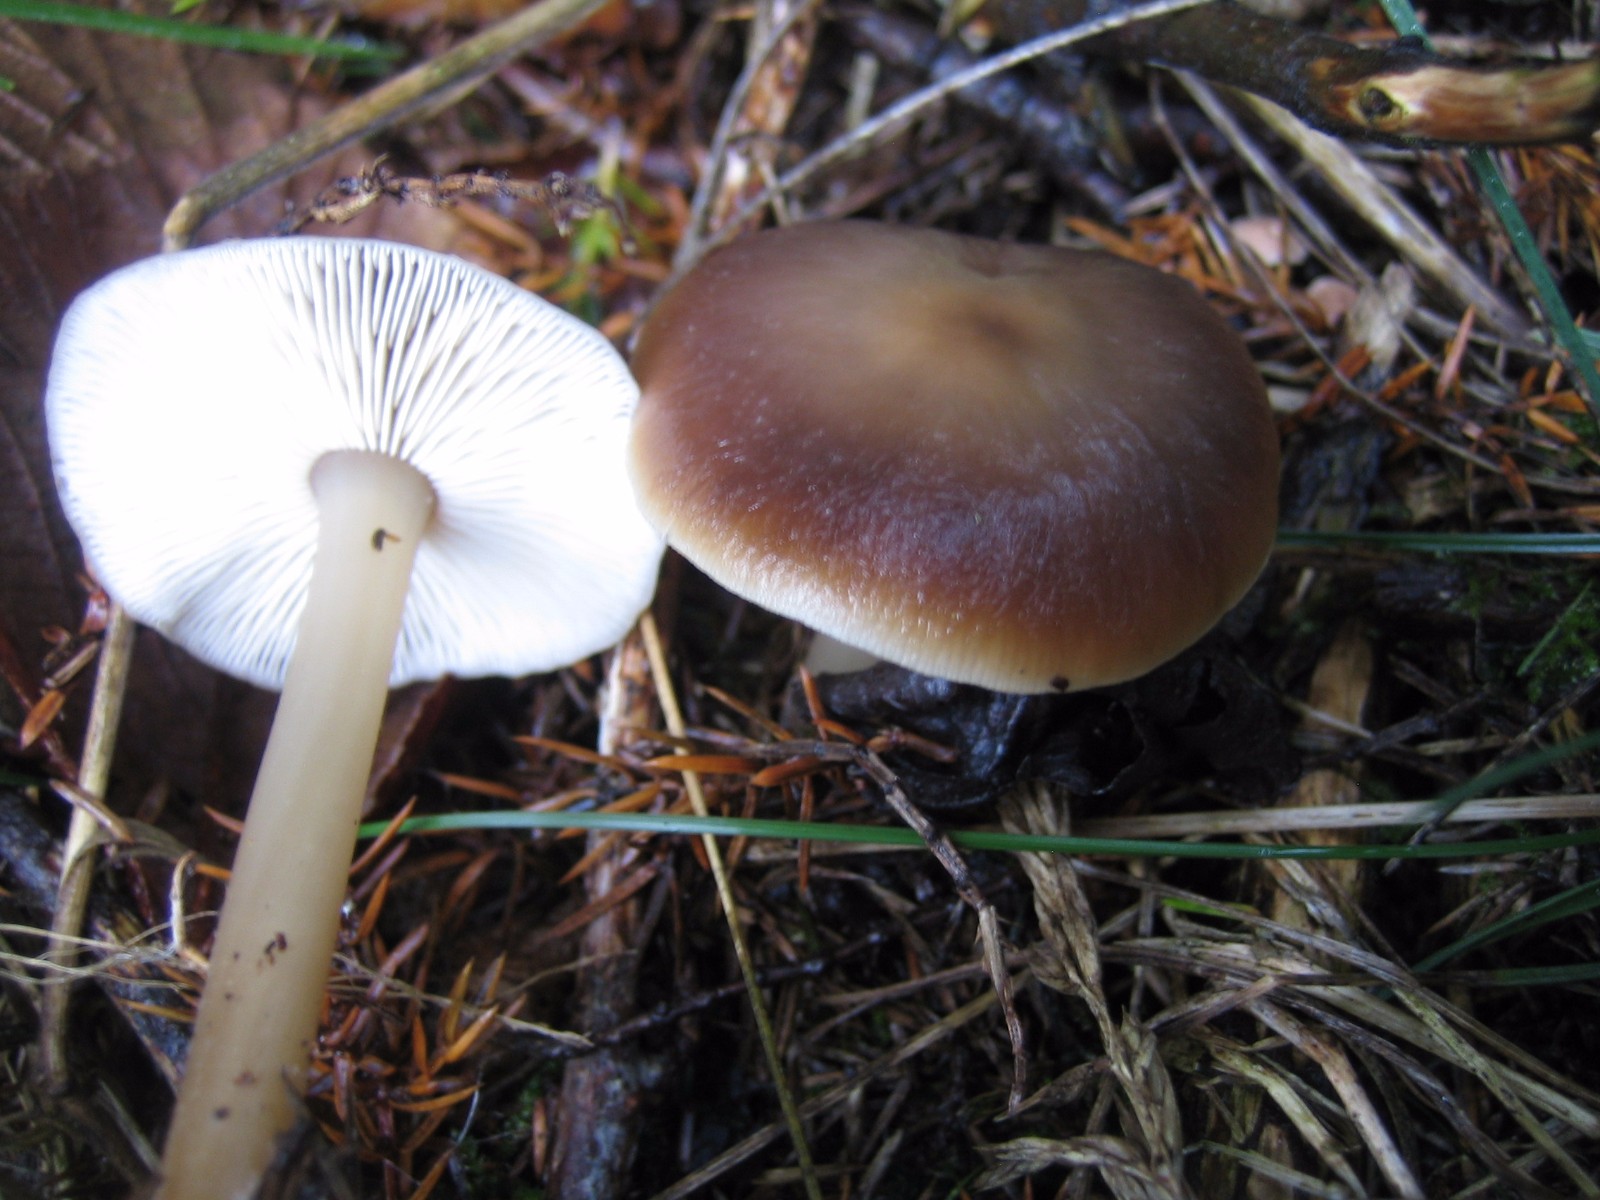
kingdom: Fungi
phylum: Basidiomycota
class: Agaricomycetes
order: Agaricales
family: Omphalotaceae
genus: Rhodocollybia
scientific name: Rhodocollybia asema
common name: horngrå fladhat
